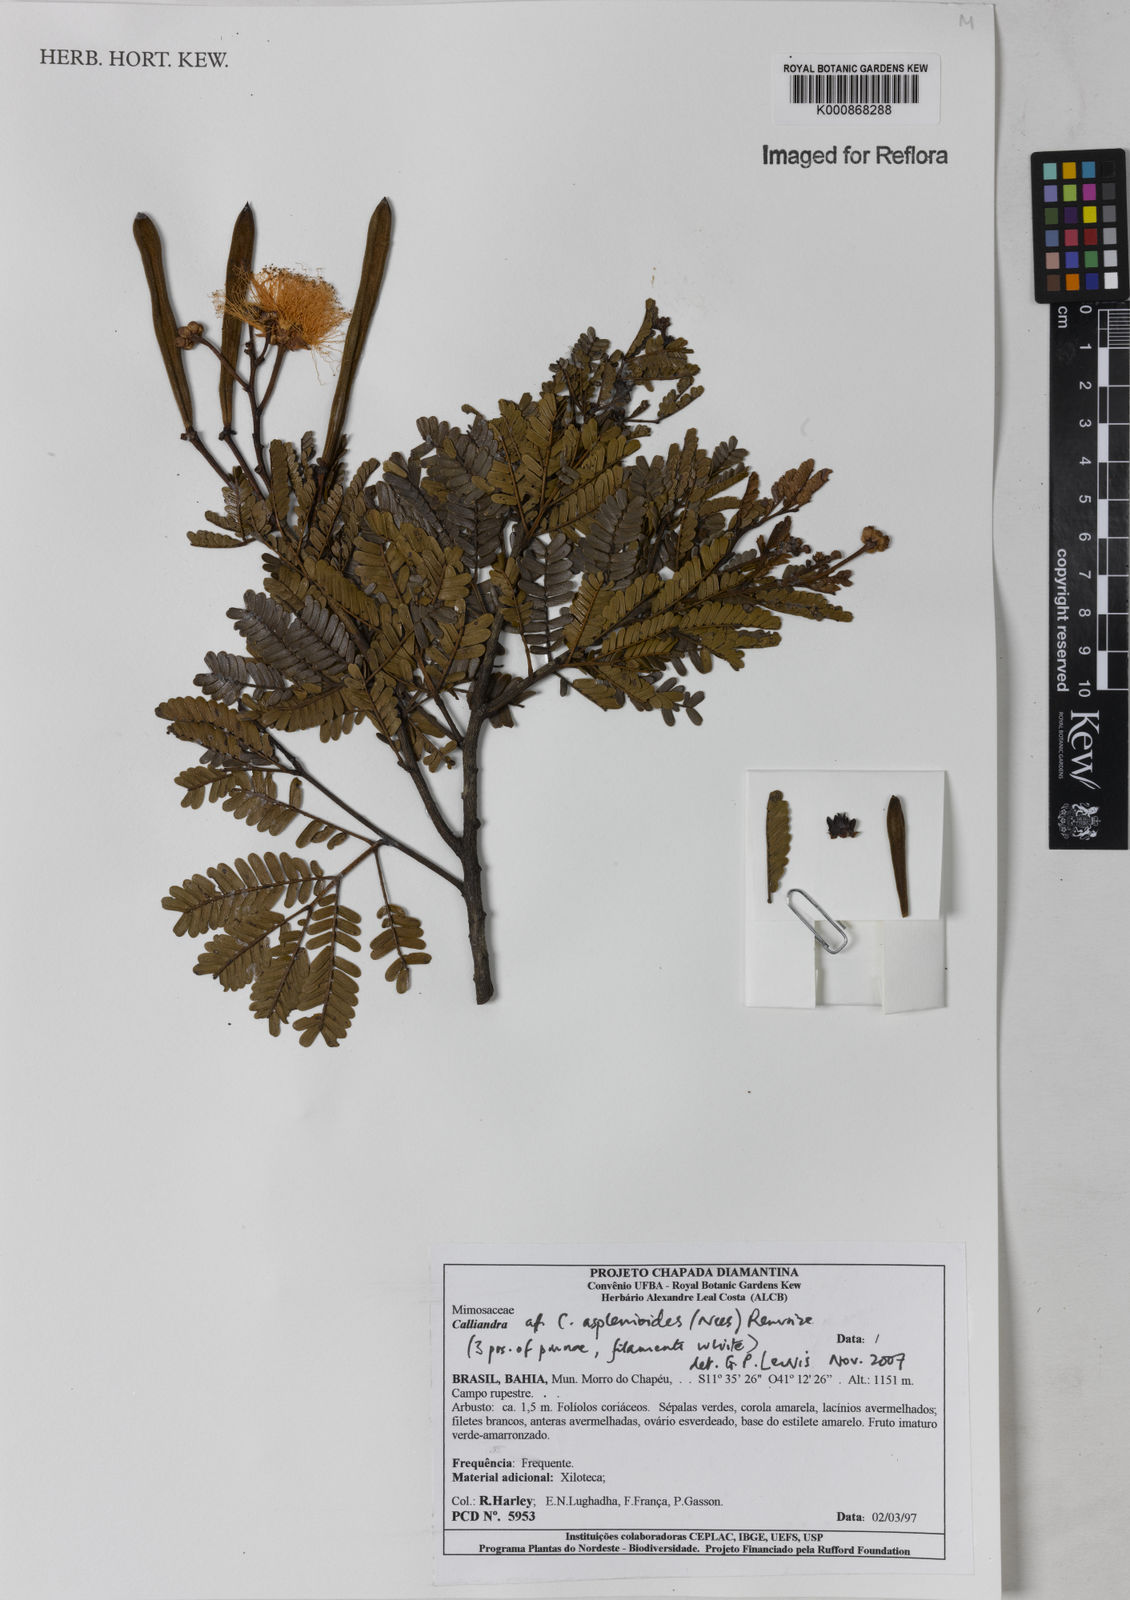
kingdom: Plantae
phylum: Tracheophyta
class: Magnoliopsida
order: Fabales
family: Fabaceae
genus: Calliandra
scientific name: Calliandra
